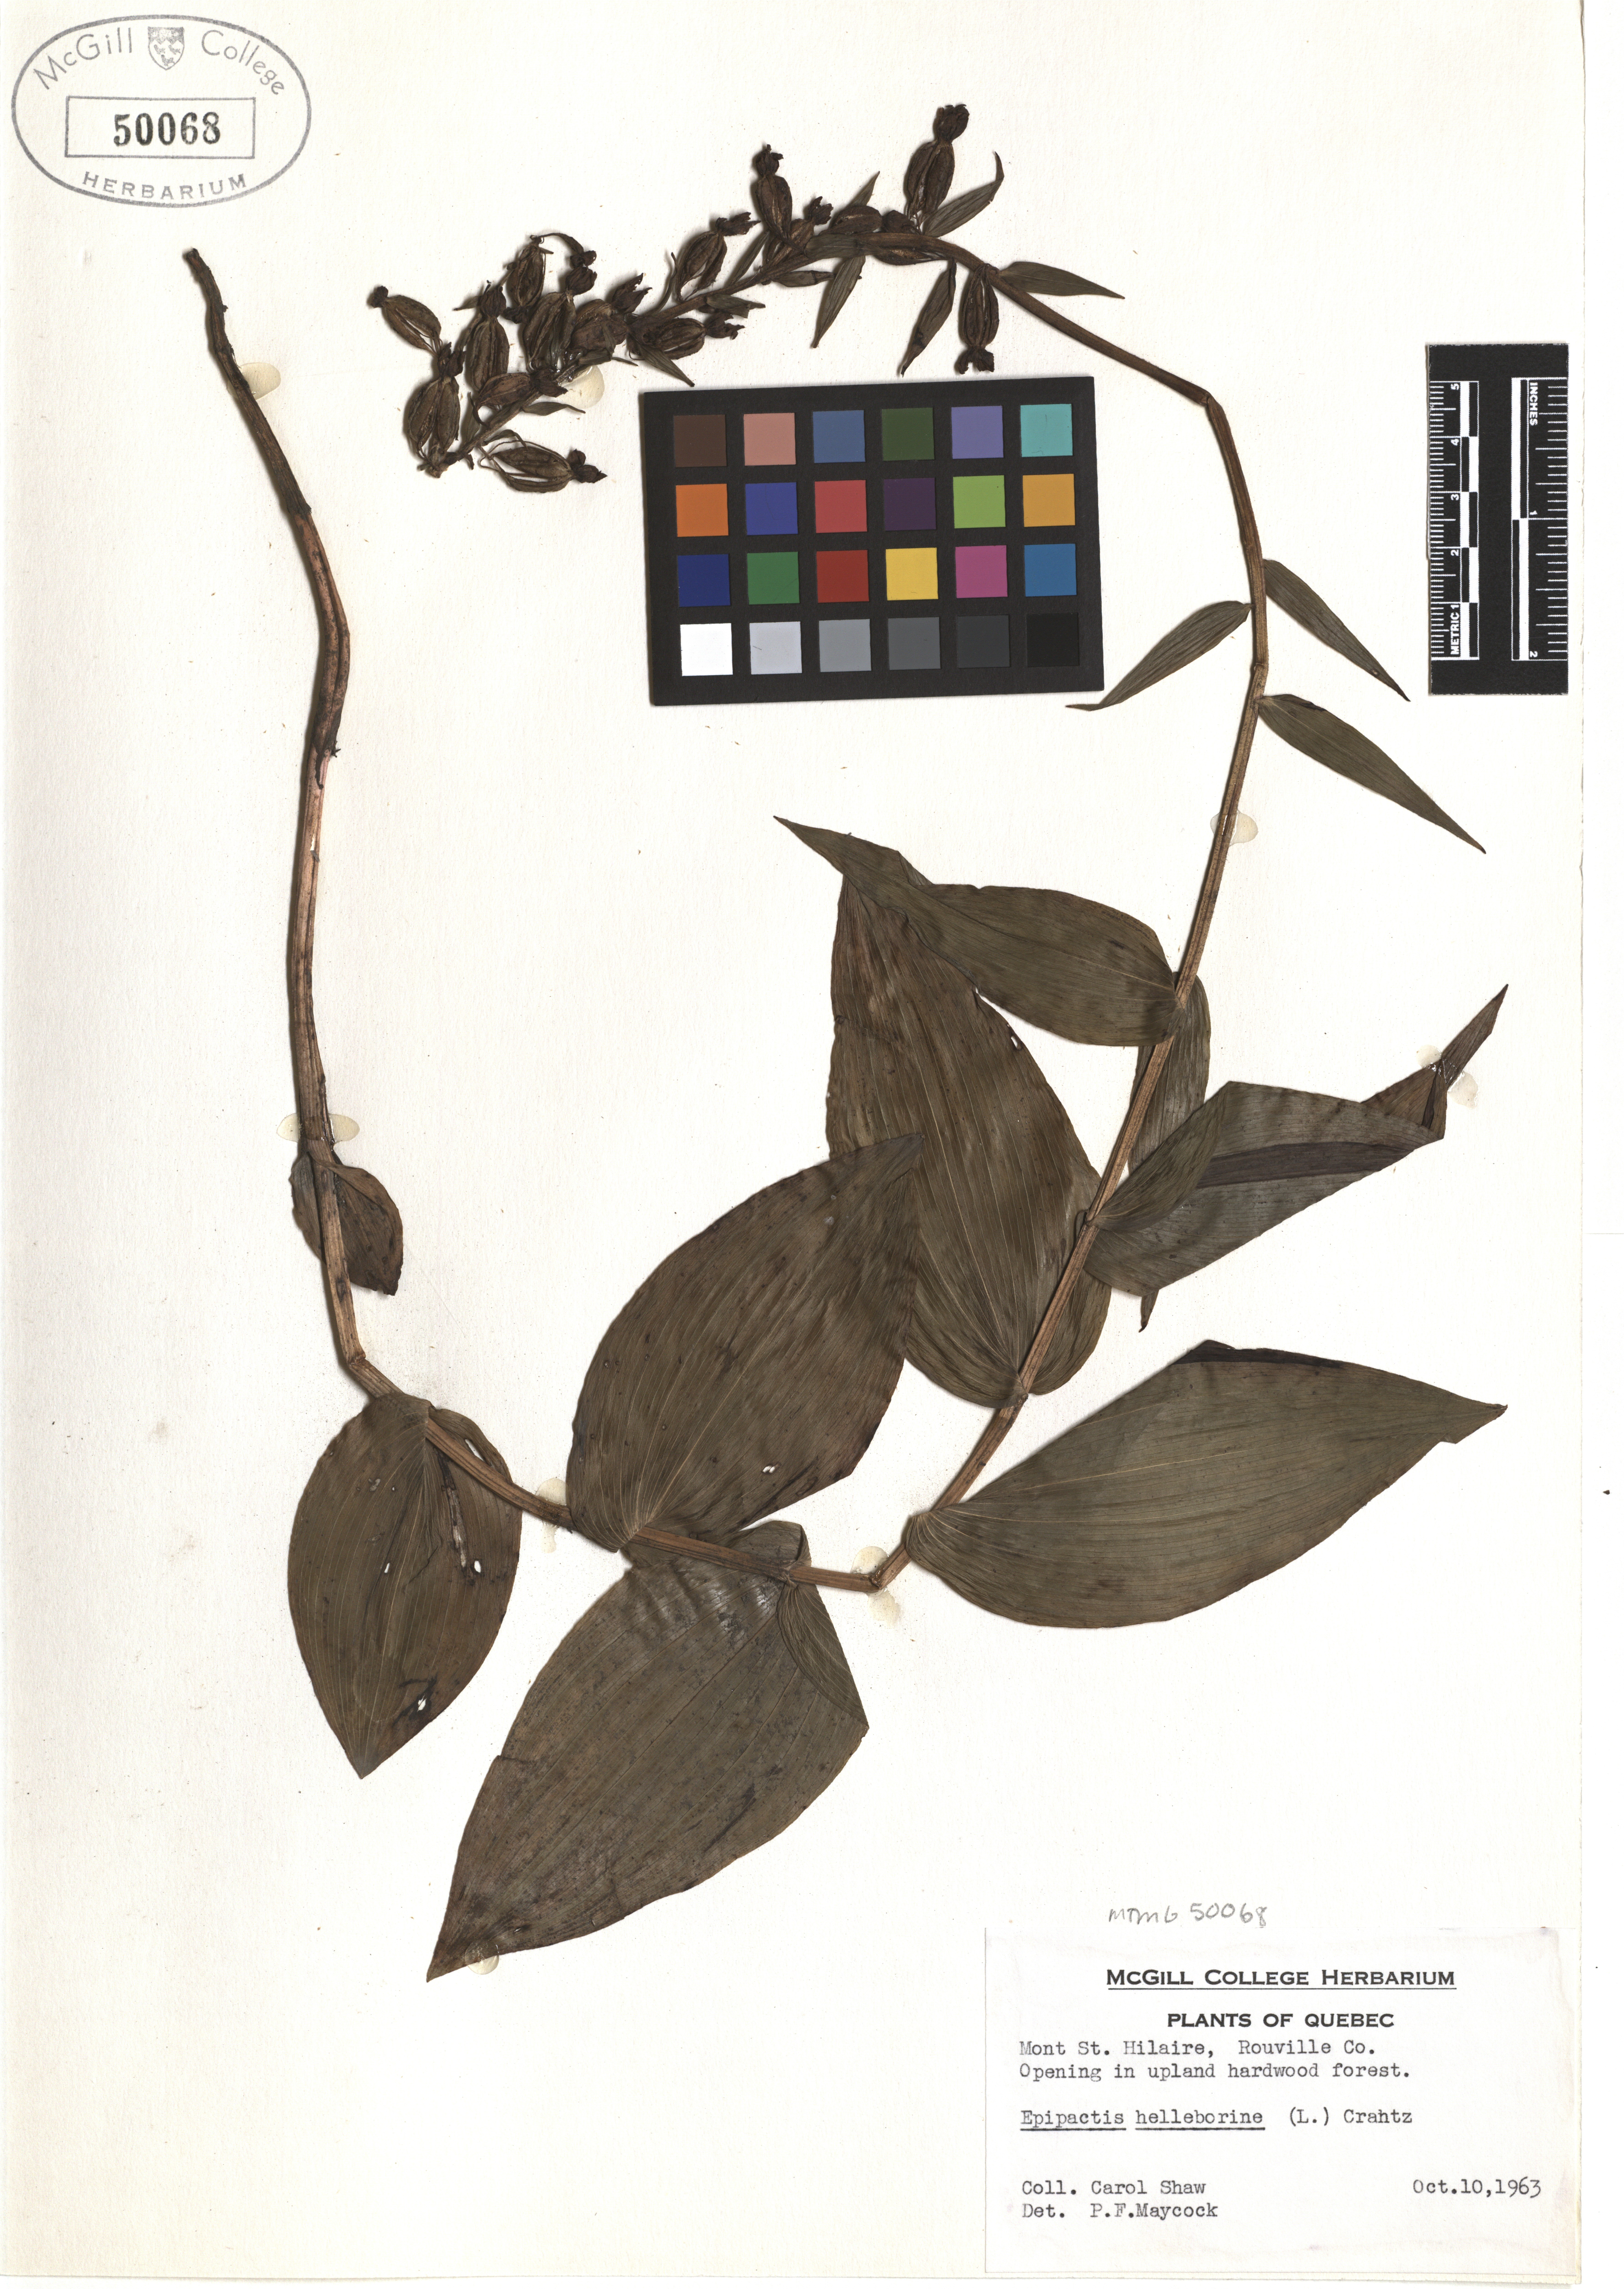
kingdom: Plantae
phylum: Tracheophyta
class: Liliopsida
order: Asparagales
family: Orchidaceae
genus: Epipactis
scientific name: Epipactis helleborine
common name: Broad-leaved helleborine
